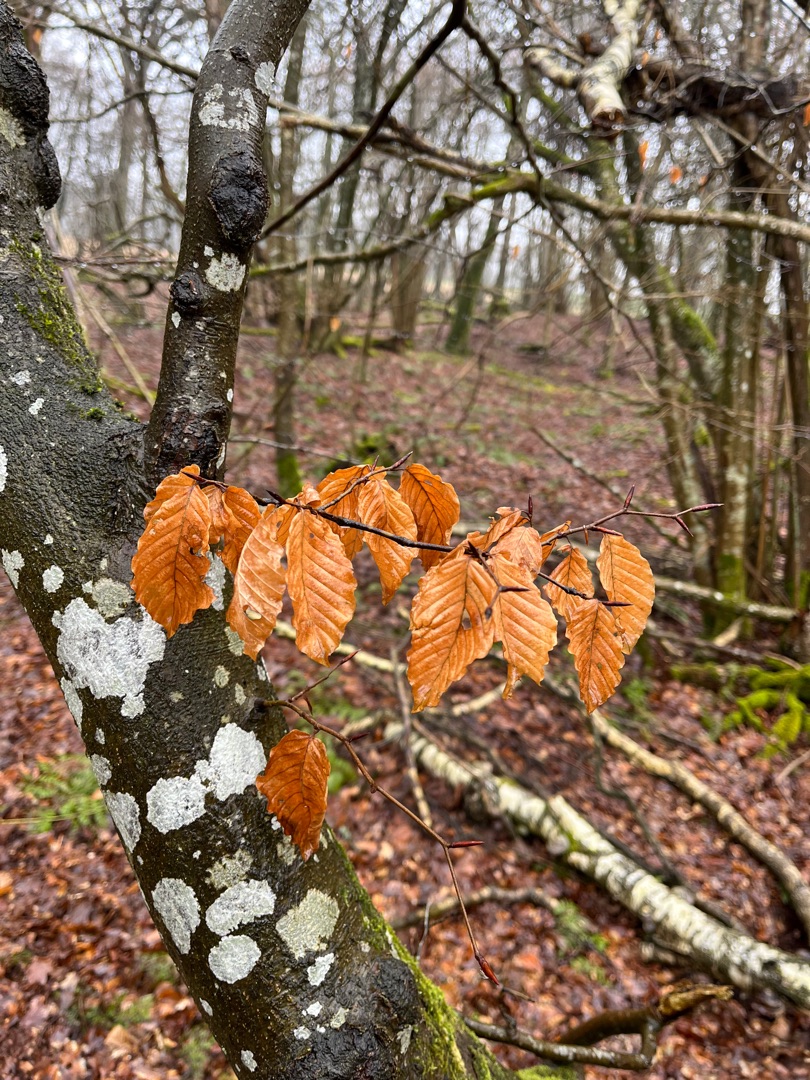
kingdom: Plantae
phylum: Tracheophyta
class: Magnoliopsida
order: Fagales
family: Fagaceae
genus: Fagus
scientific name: Fagus sylvatica
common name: Bøg
